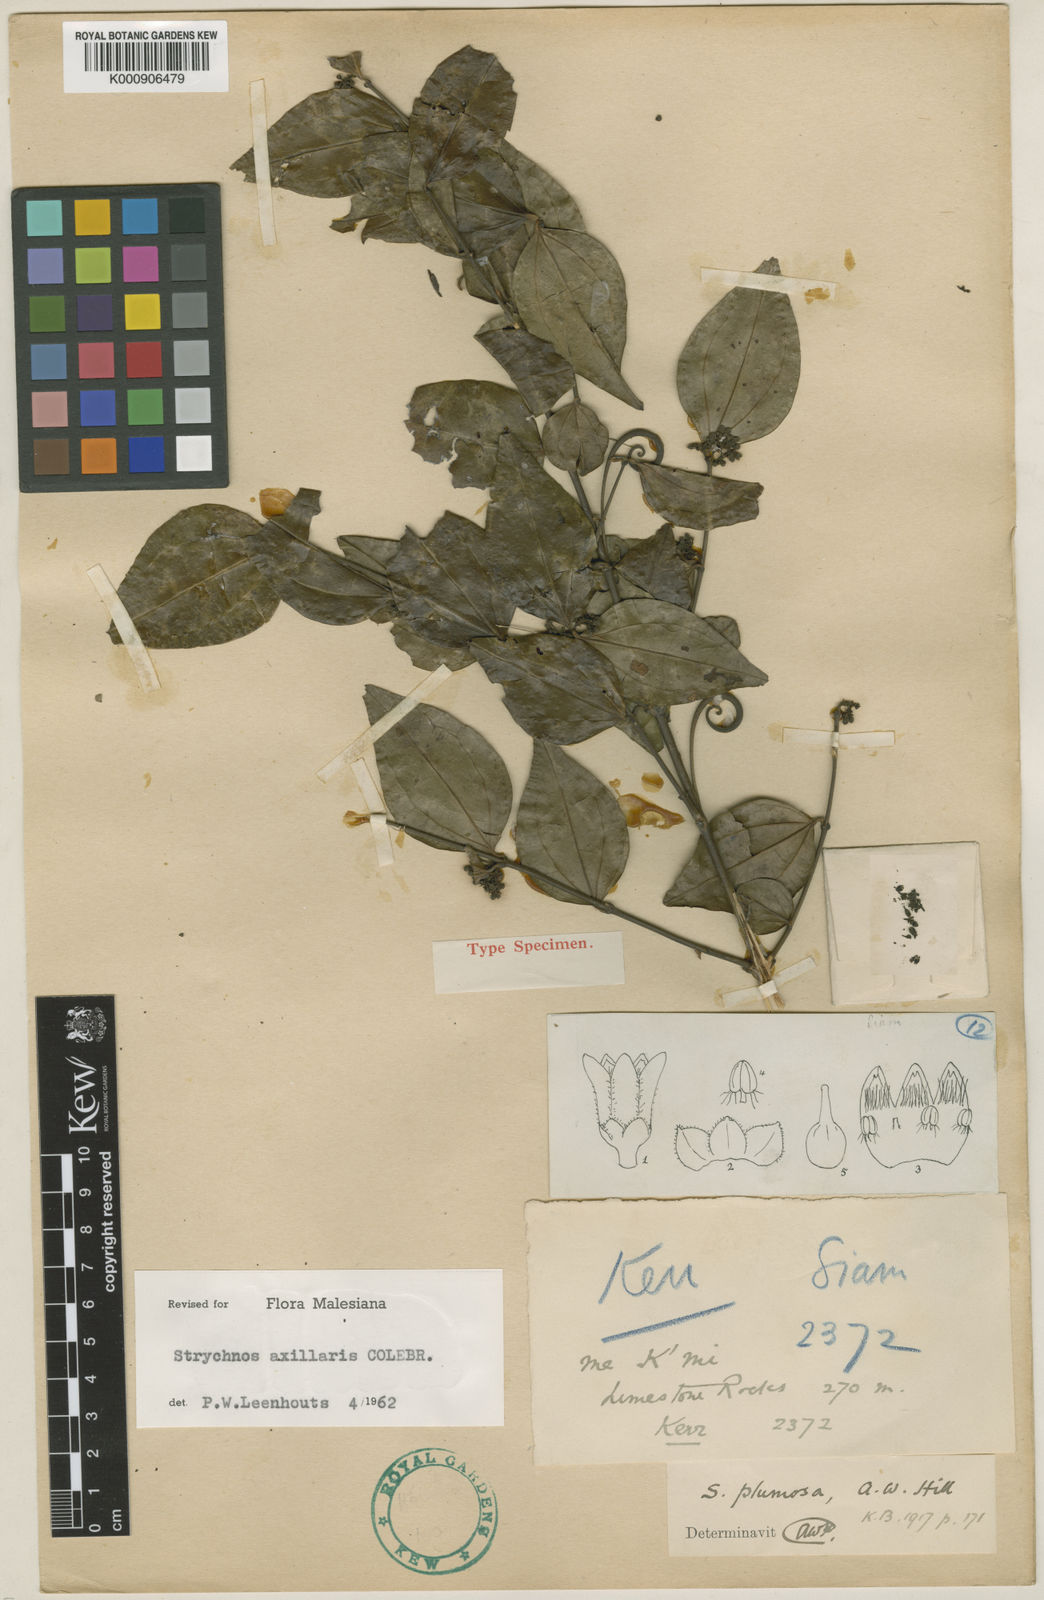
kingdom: Plantae
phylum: Tracheophyta
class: Magnoliopsida
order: Gentianales
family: Loganiaceae
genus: Strychnos
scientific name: Strychnos axillaris
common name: Strychninebush
